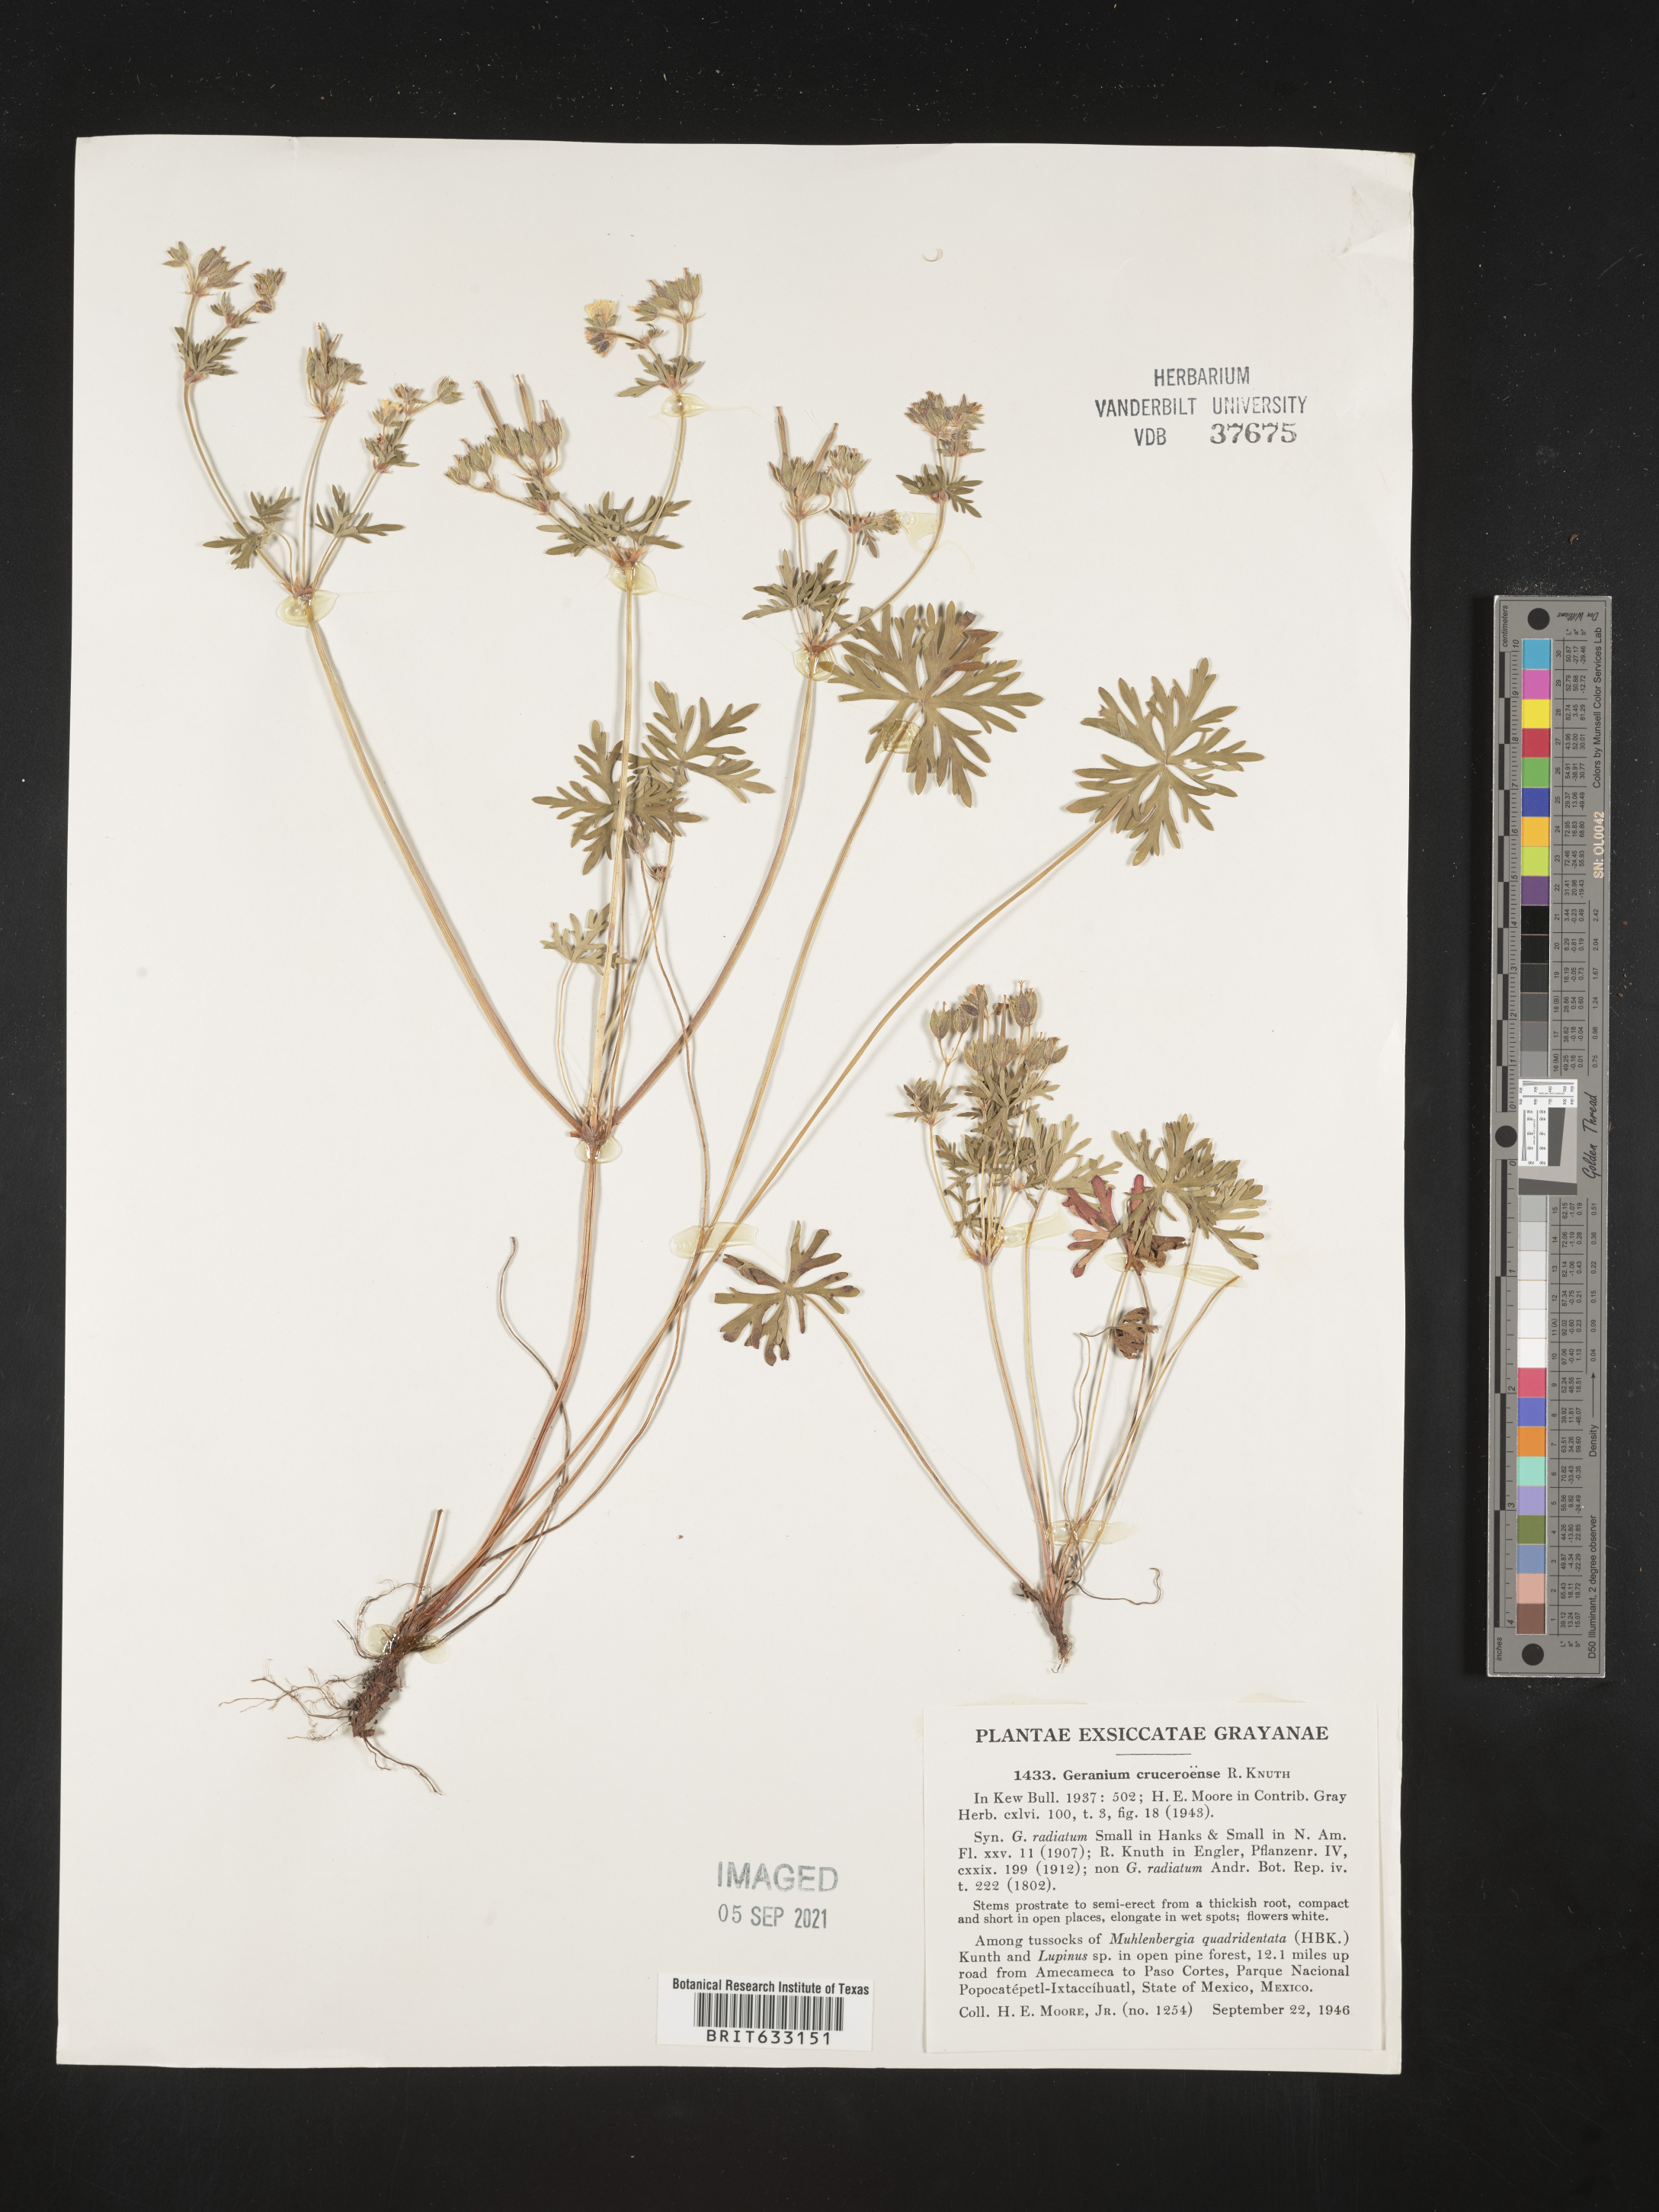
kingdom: Plantae
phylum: Tracheophyta
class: Magnoliopsida
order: Geraniales
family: Geraniaceae
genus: Geranium
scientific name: Geranium
